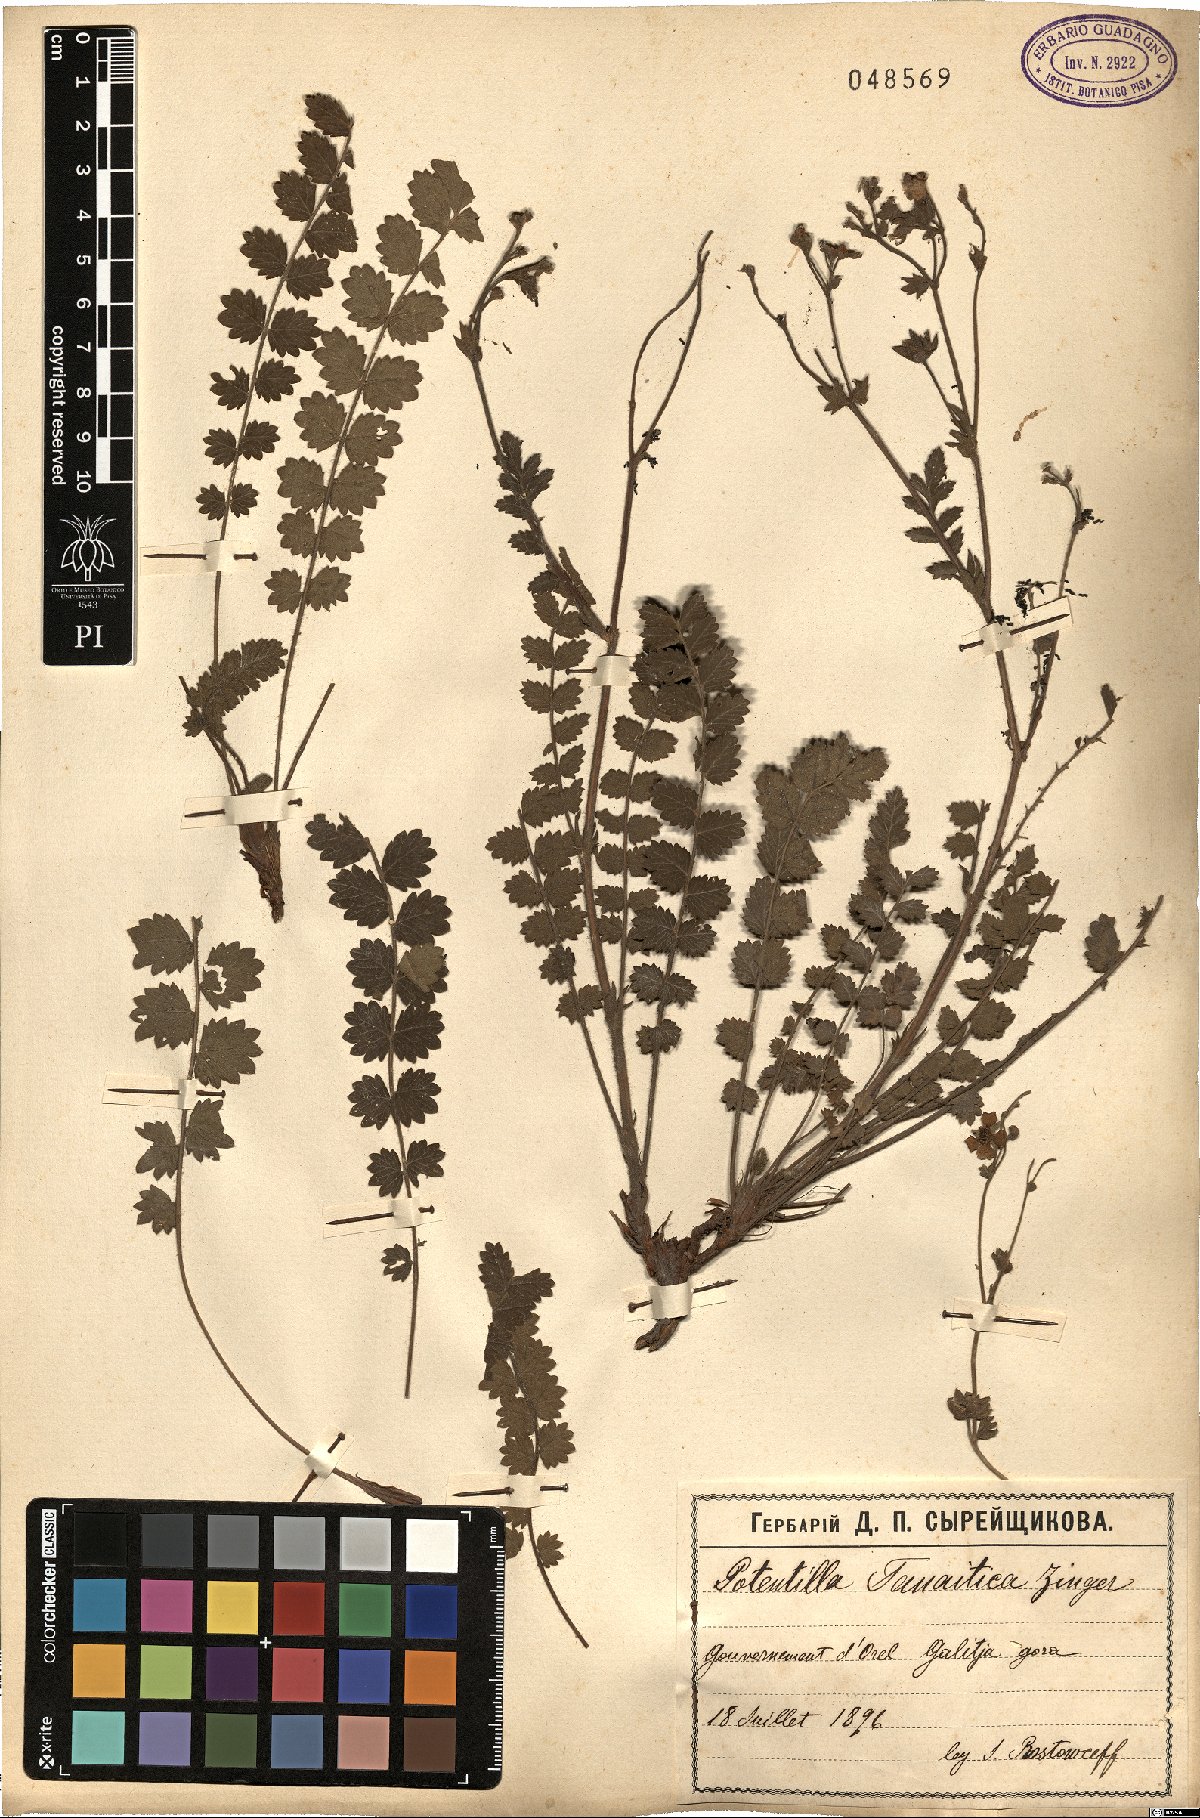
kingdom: Plantae
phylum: Tracheophyta
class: Magnoliopsida
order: Rosales
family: Rosaceae
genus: Potentilla
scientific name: Potentilla pimpinelloides
